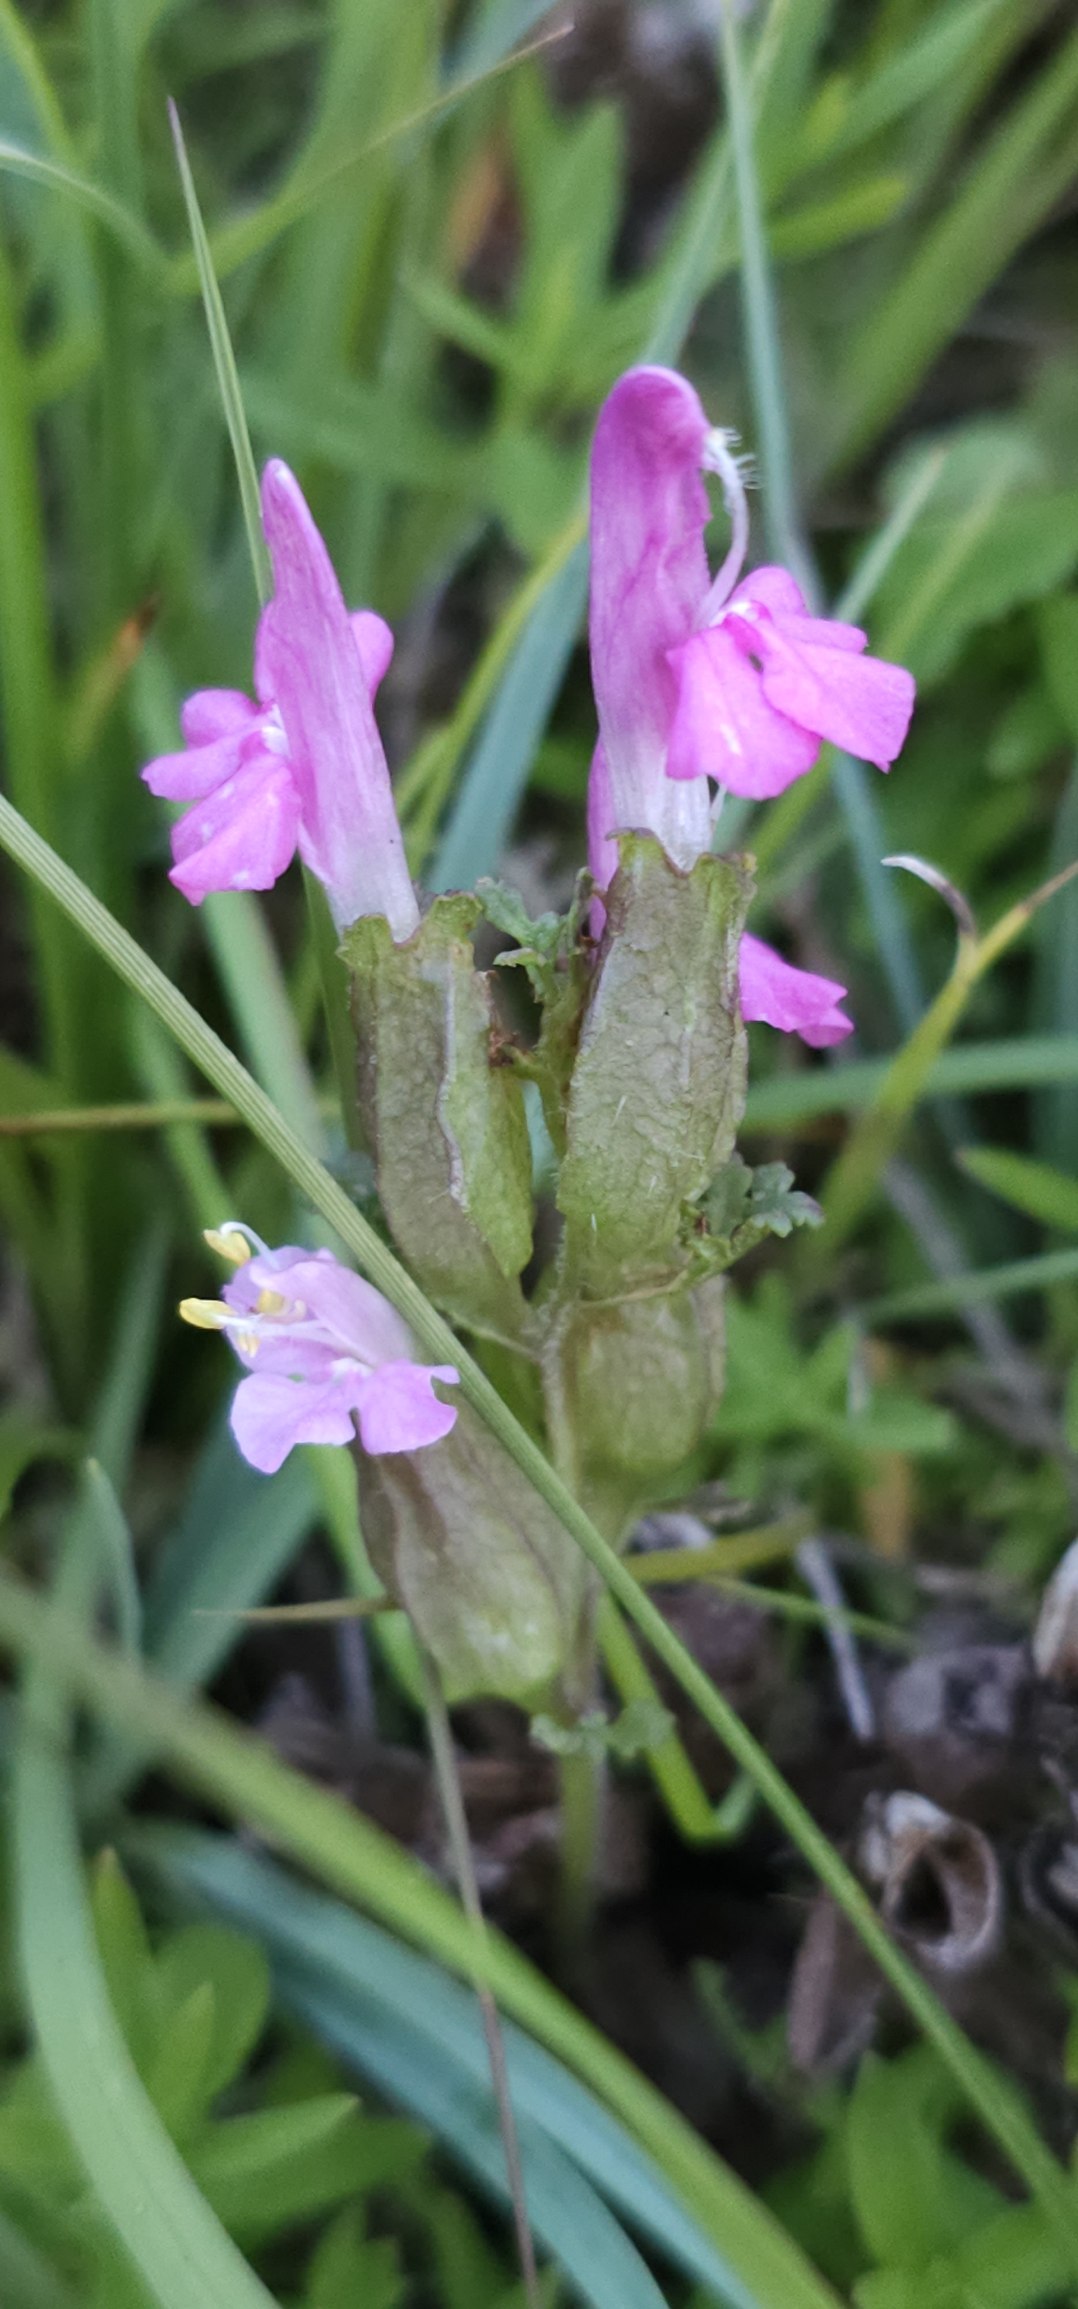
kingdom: Plantae
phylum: Tracheophyta
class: Magnoliopsida
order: Lamiales
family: Orobanchaceae
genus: Pedicularis
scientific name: Pedicularis sylvatica
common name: Mose-troldurt
